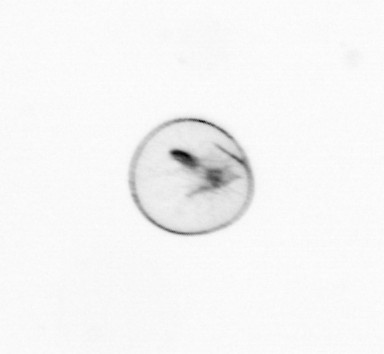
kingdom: Chromista
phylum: Myzozoa
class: Dinophyceae
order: Noctilucales
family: Noctilucaceae
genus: Noctiluca
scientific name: Noctiluca scintillans
